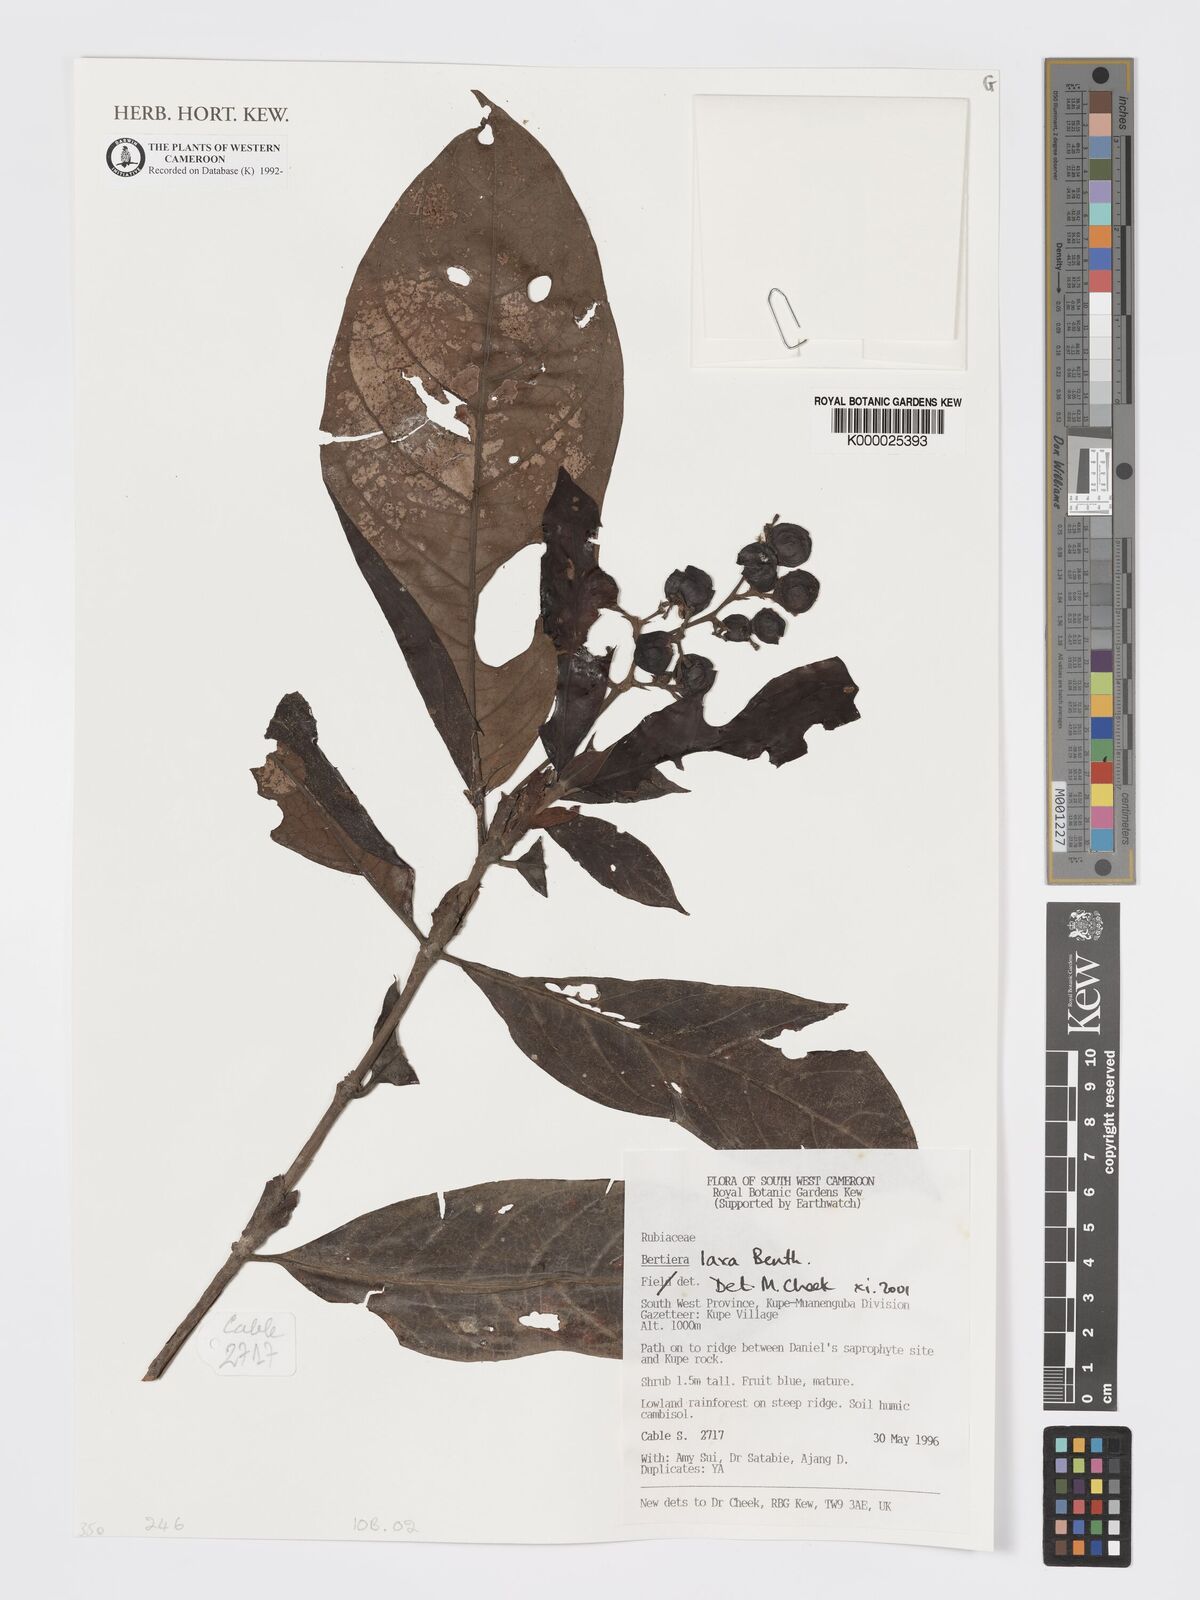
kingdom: Plantae
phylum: Tracheophyta
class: Magnoliopsida
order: Gentianales
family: Rubiaceae
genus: Bertiera
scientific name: Bertiera laxa
